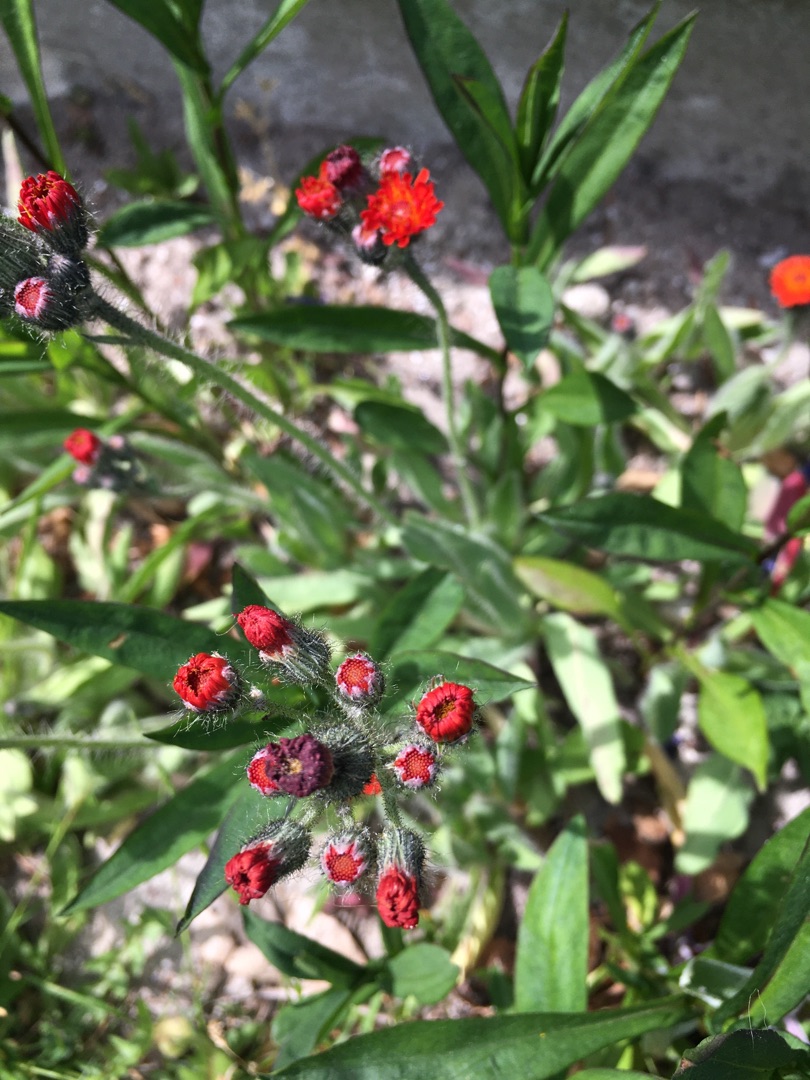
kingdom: Plantae
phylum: Tracheophyta
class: Magnoliopsida
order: Asterales
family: Asteraceae
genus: Pilosella
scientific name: Pilosella aurantiaca
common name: Pomerans-høgeurt
